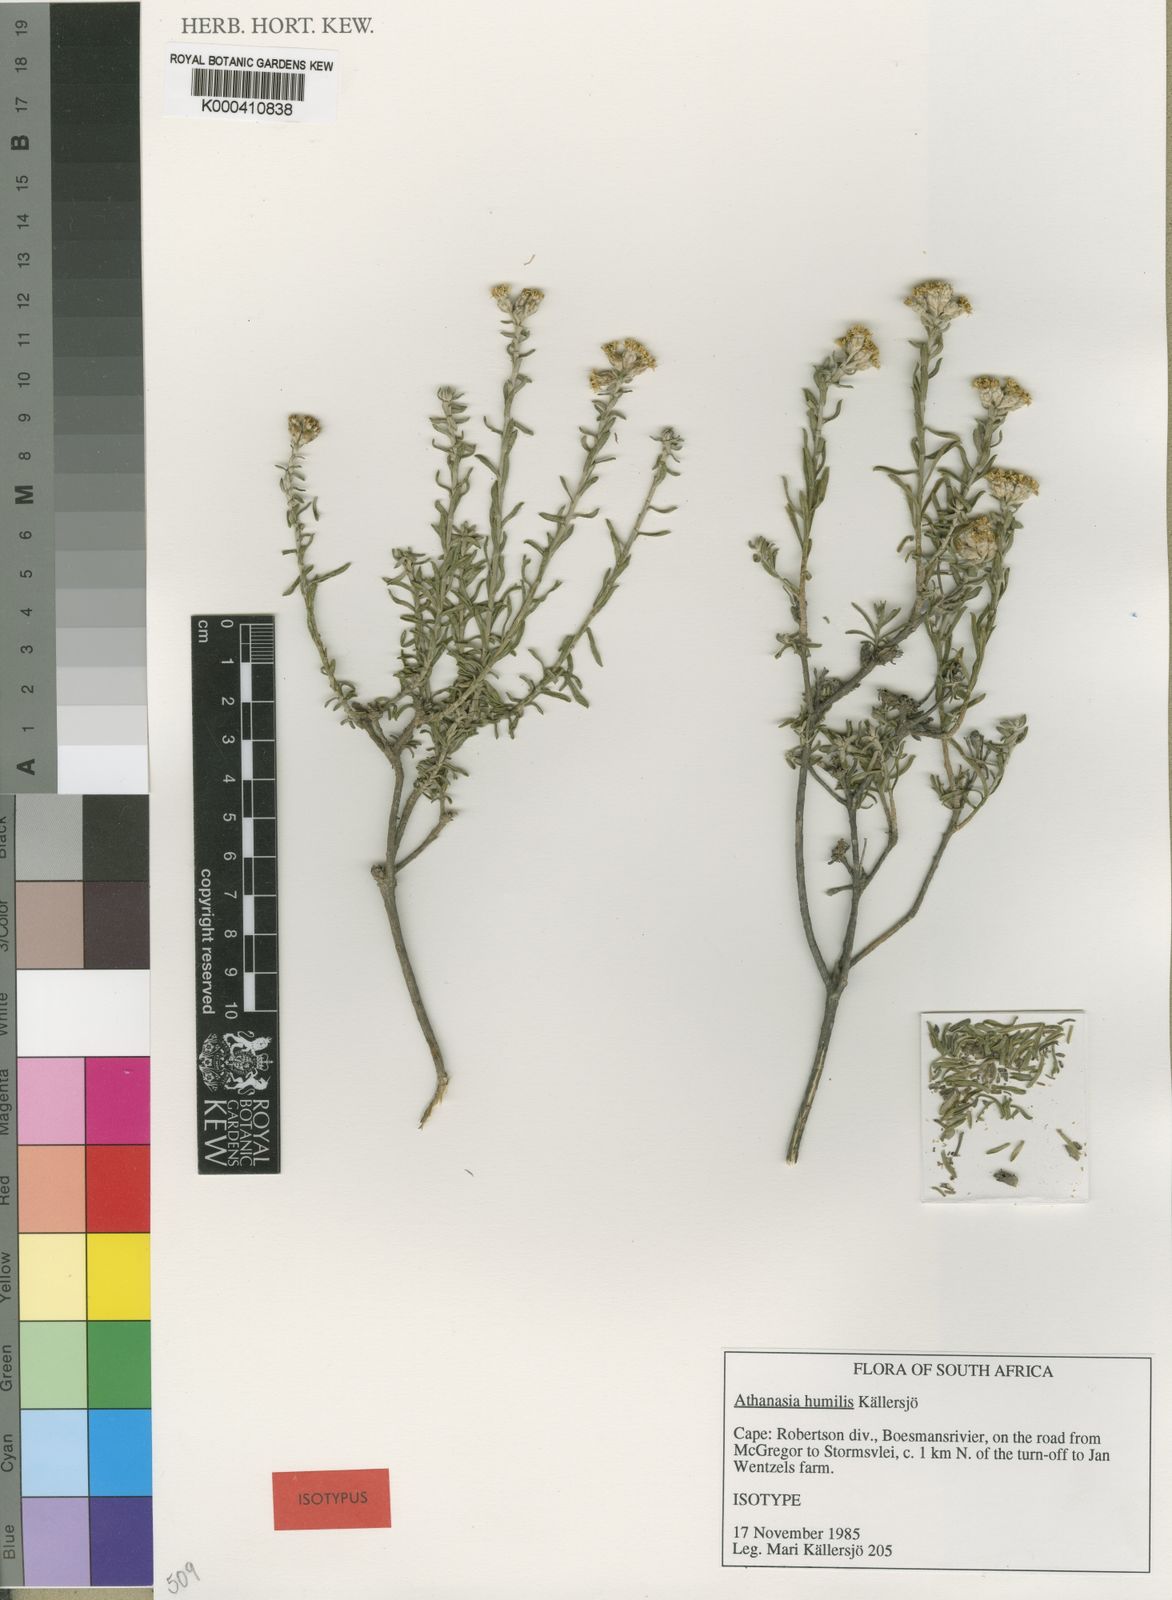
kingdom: Plantae
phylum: Tracheophyta
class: Magnoliopsida
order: Asterales
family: Asteraceae
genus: Athanasia
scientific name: Athanasia
